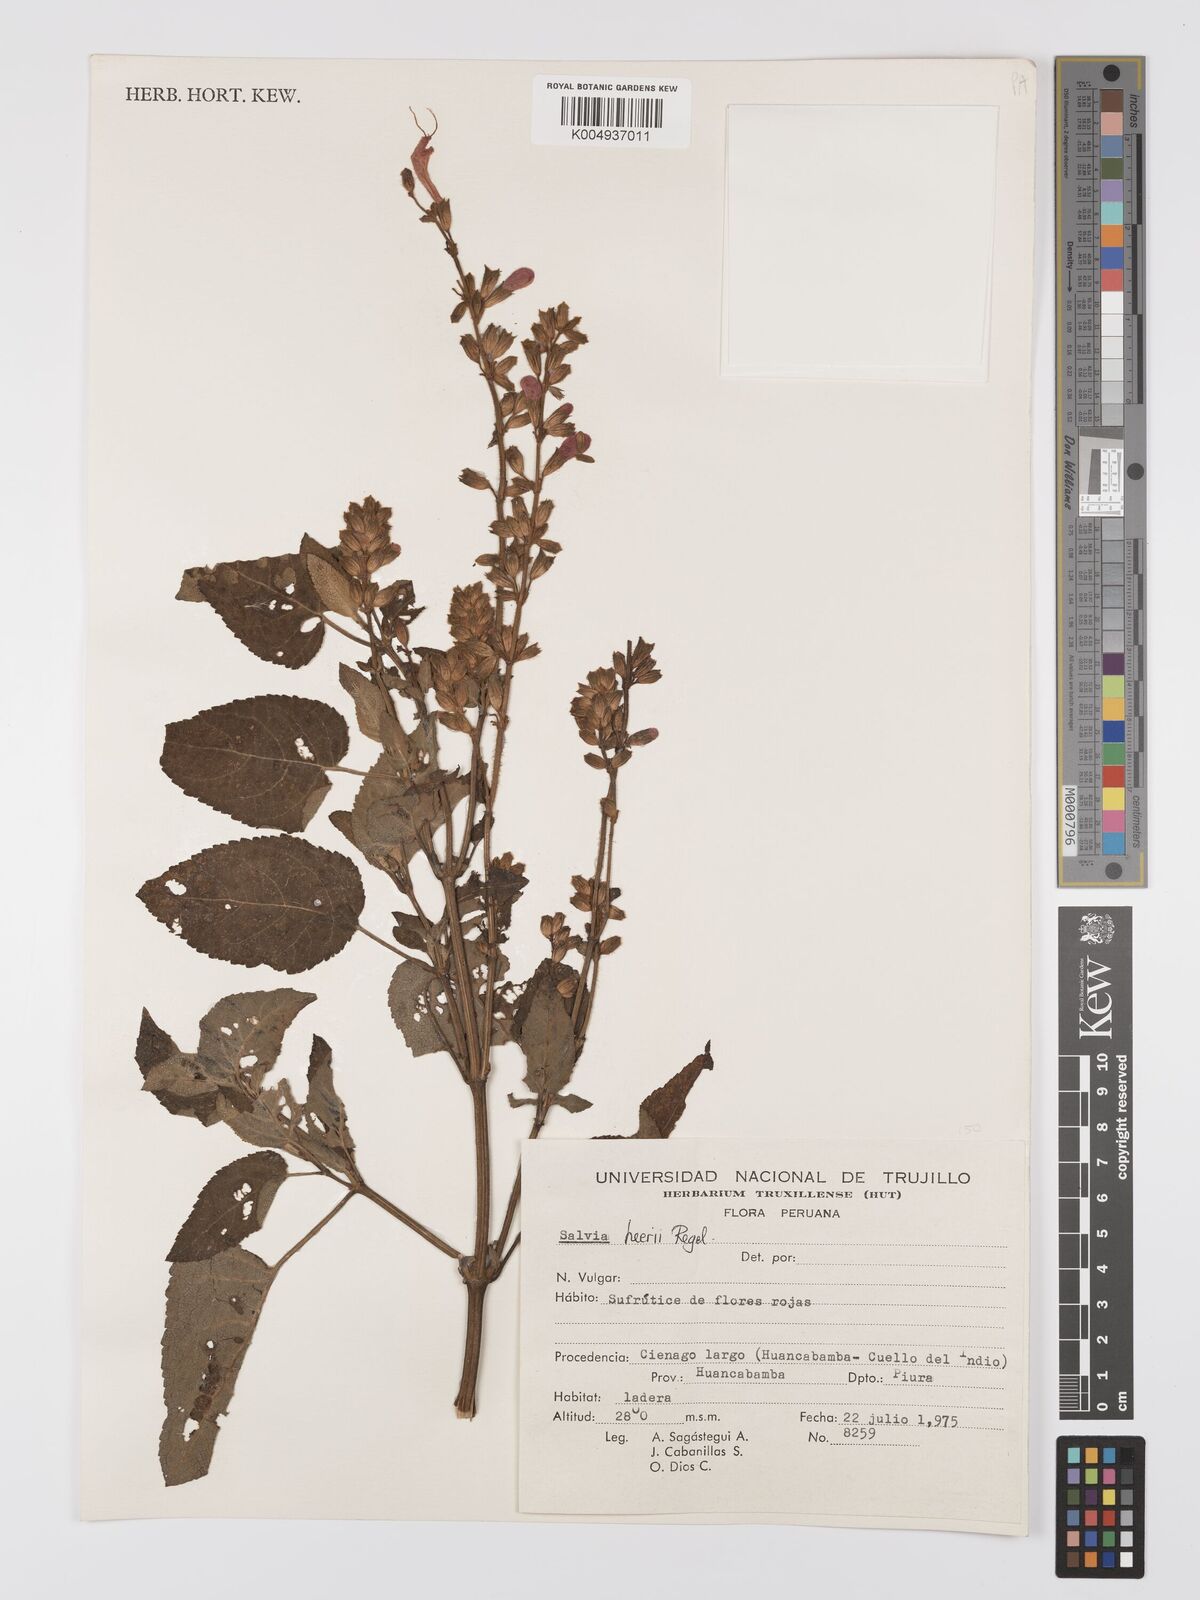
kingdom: Plantae
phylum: Tracheophyta
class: Magnoliopsida
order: Lamiales
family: Lamiaceae
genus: Salvia
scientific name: Salvia heerii
